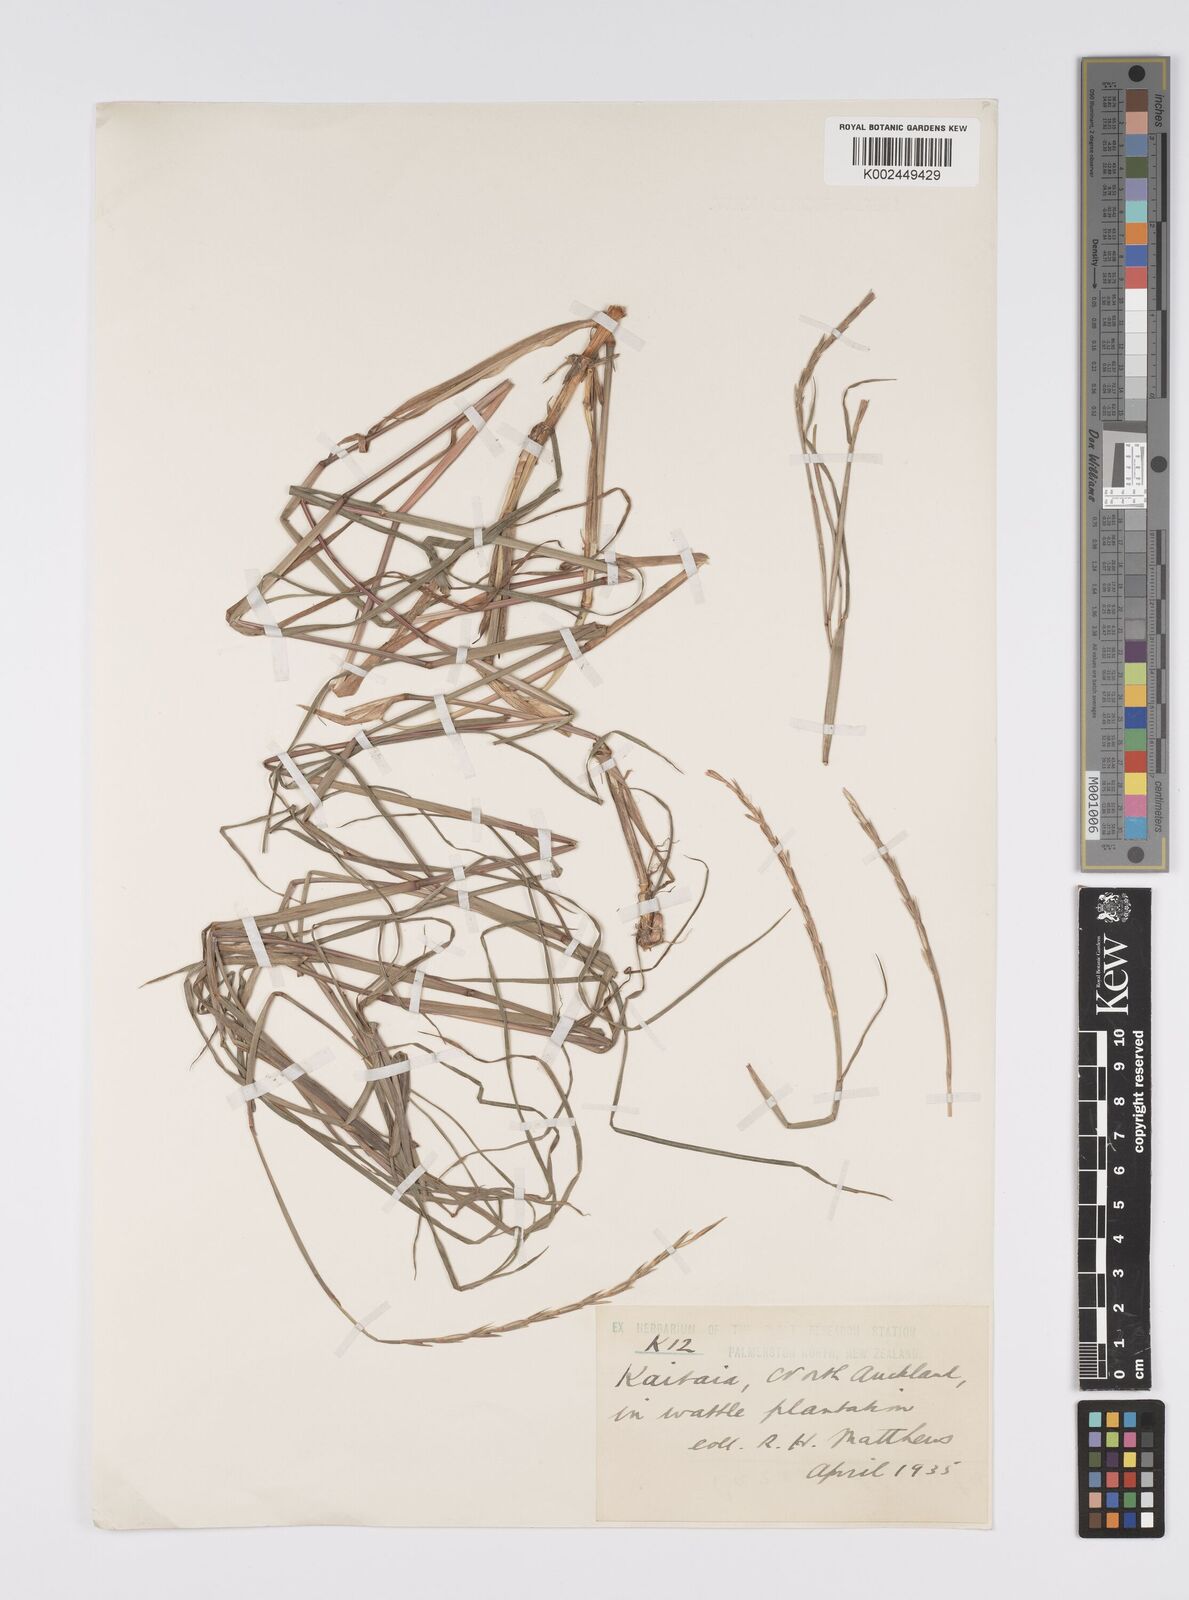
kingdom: Plantae
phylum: Tracheophyta
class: Liliopsida
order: Poales
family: Poaceae
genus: Hemarthria
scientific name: Hemarthria uncinata
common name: Matgrass
